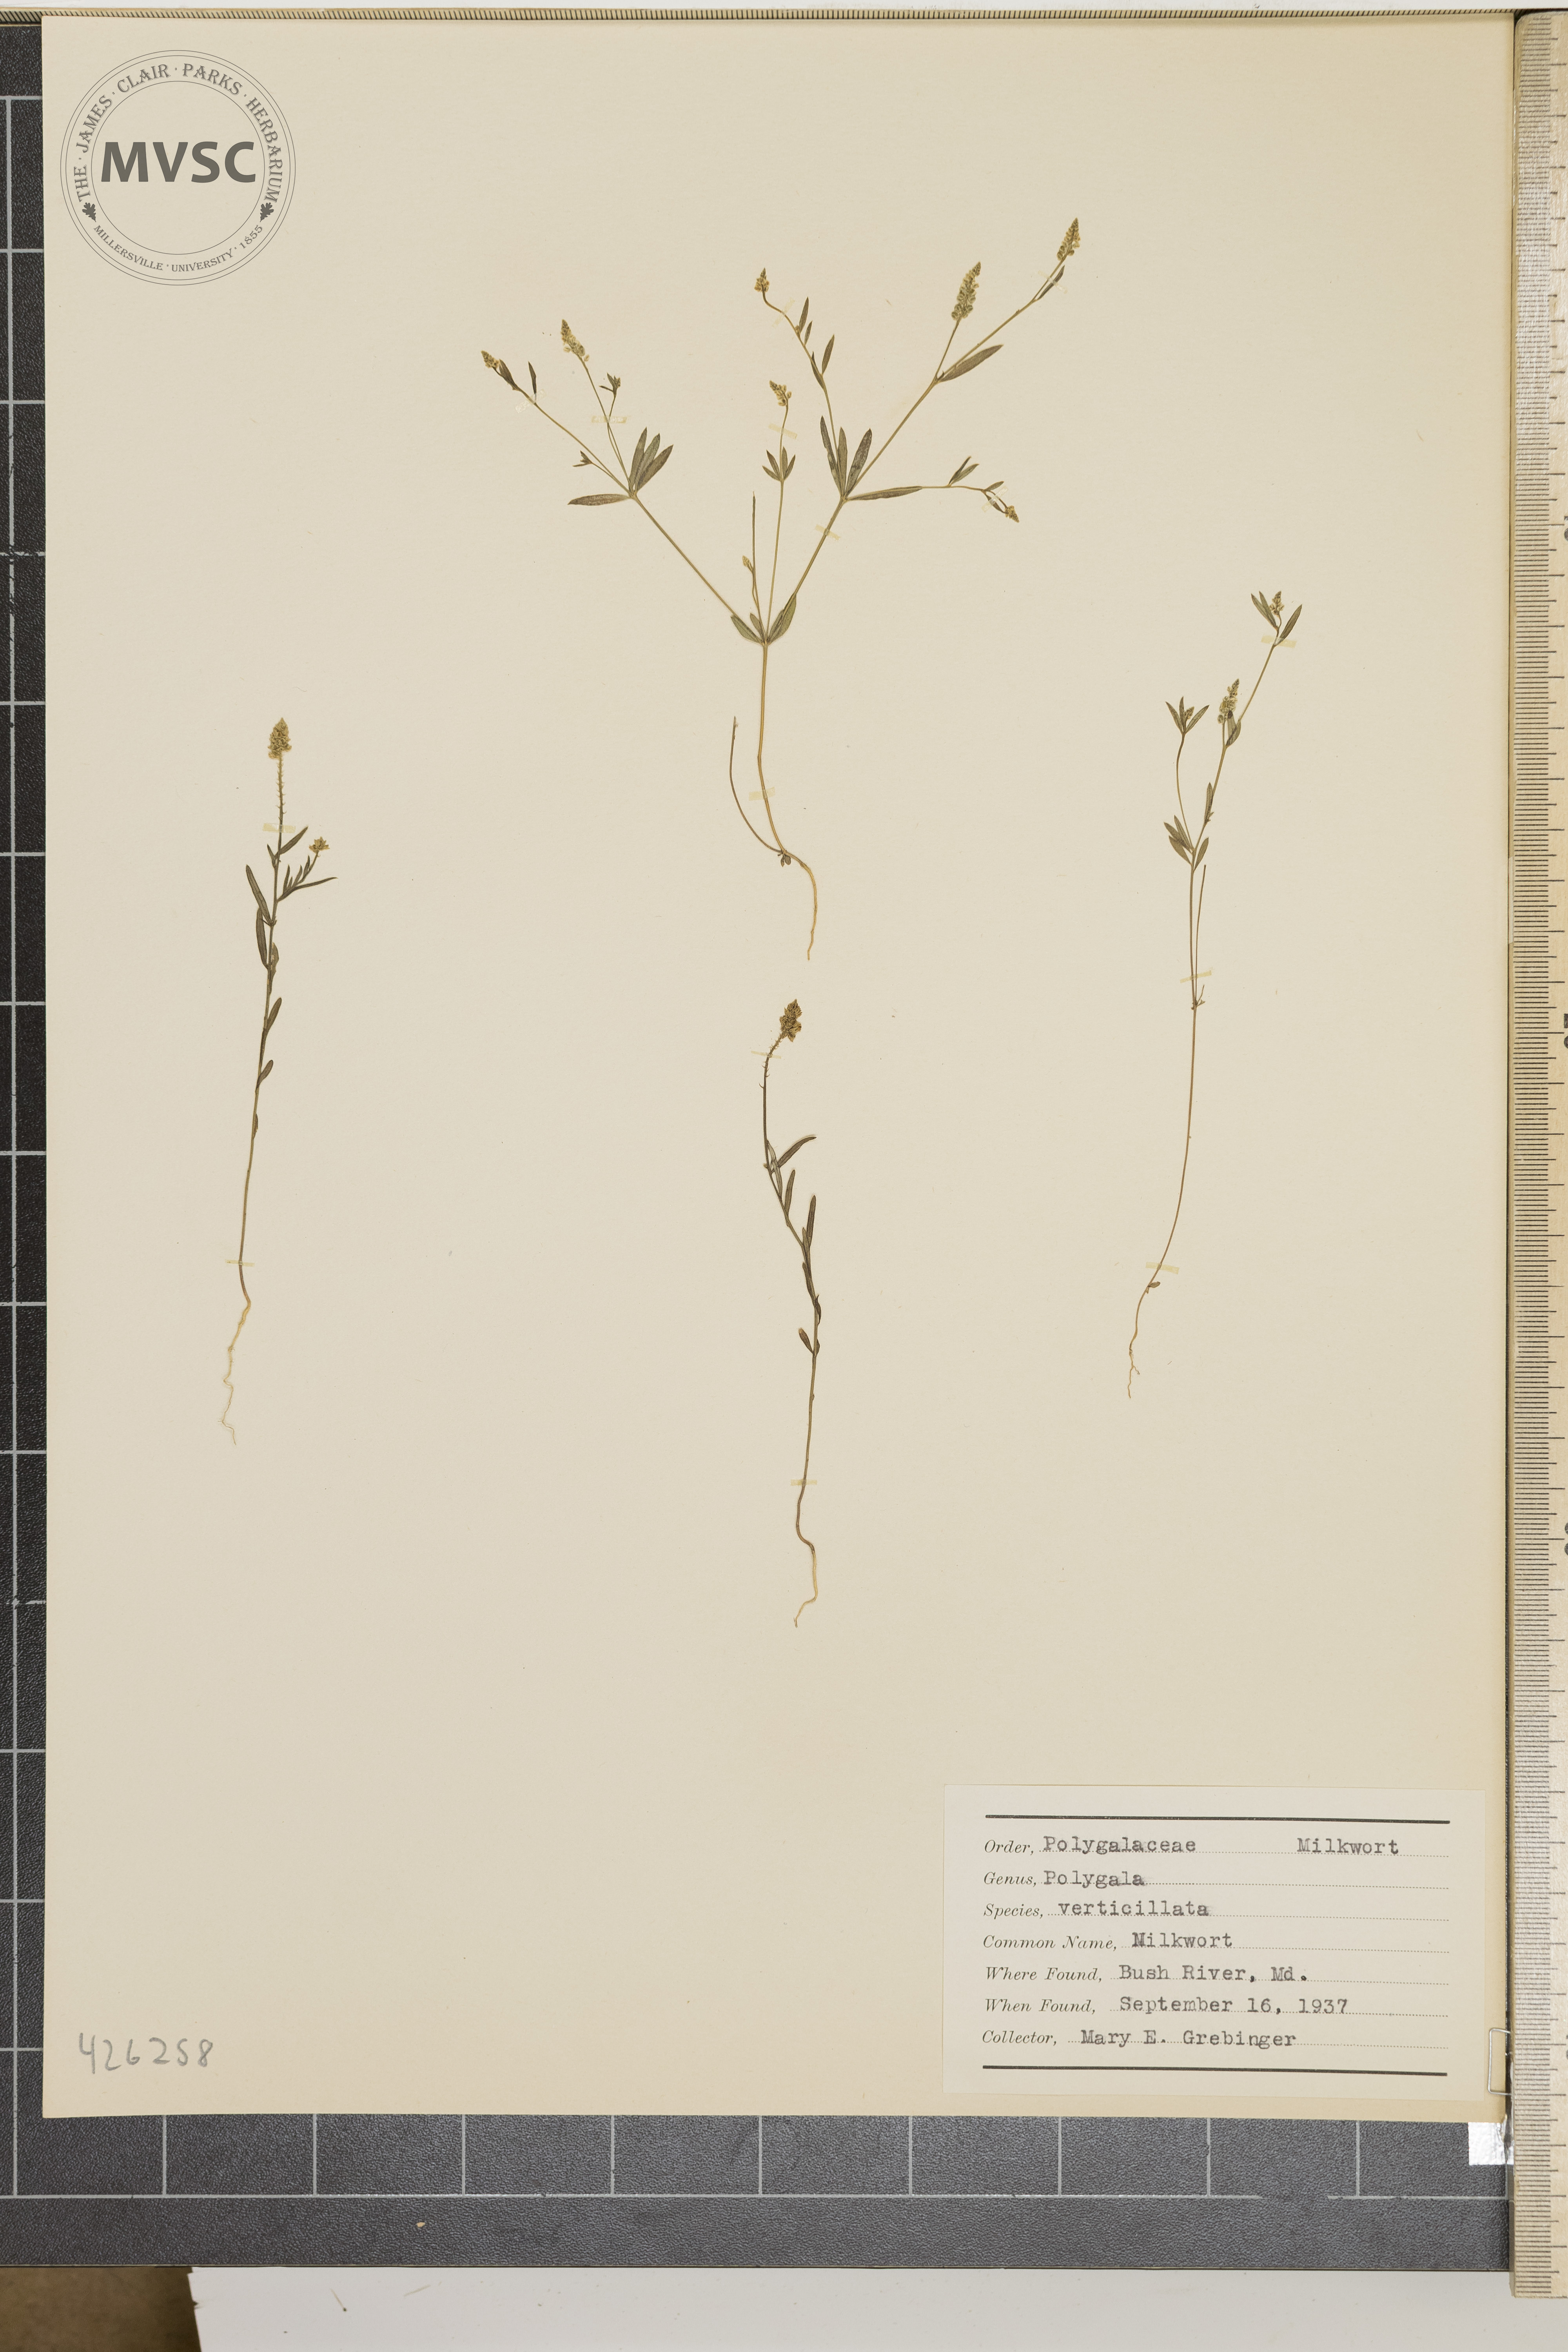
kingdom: Plantae
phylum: Tracheophyta
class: Magnoliopsida
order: Fabales
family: Polygalaceae
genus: Polygala
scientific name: Polygala verticillata
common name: Milkwort
